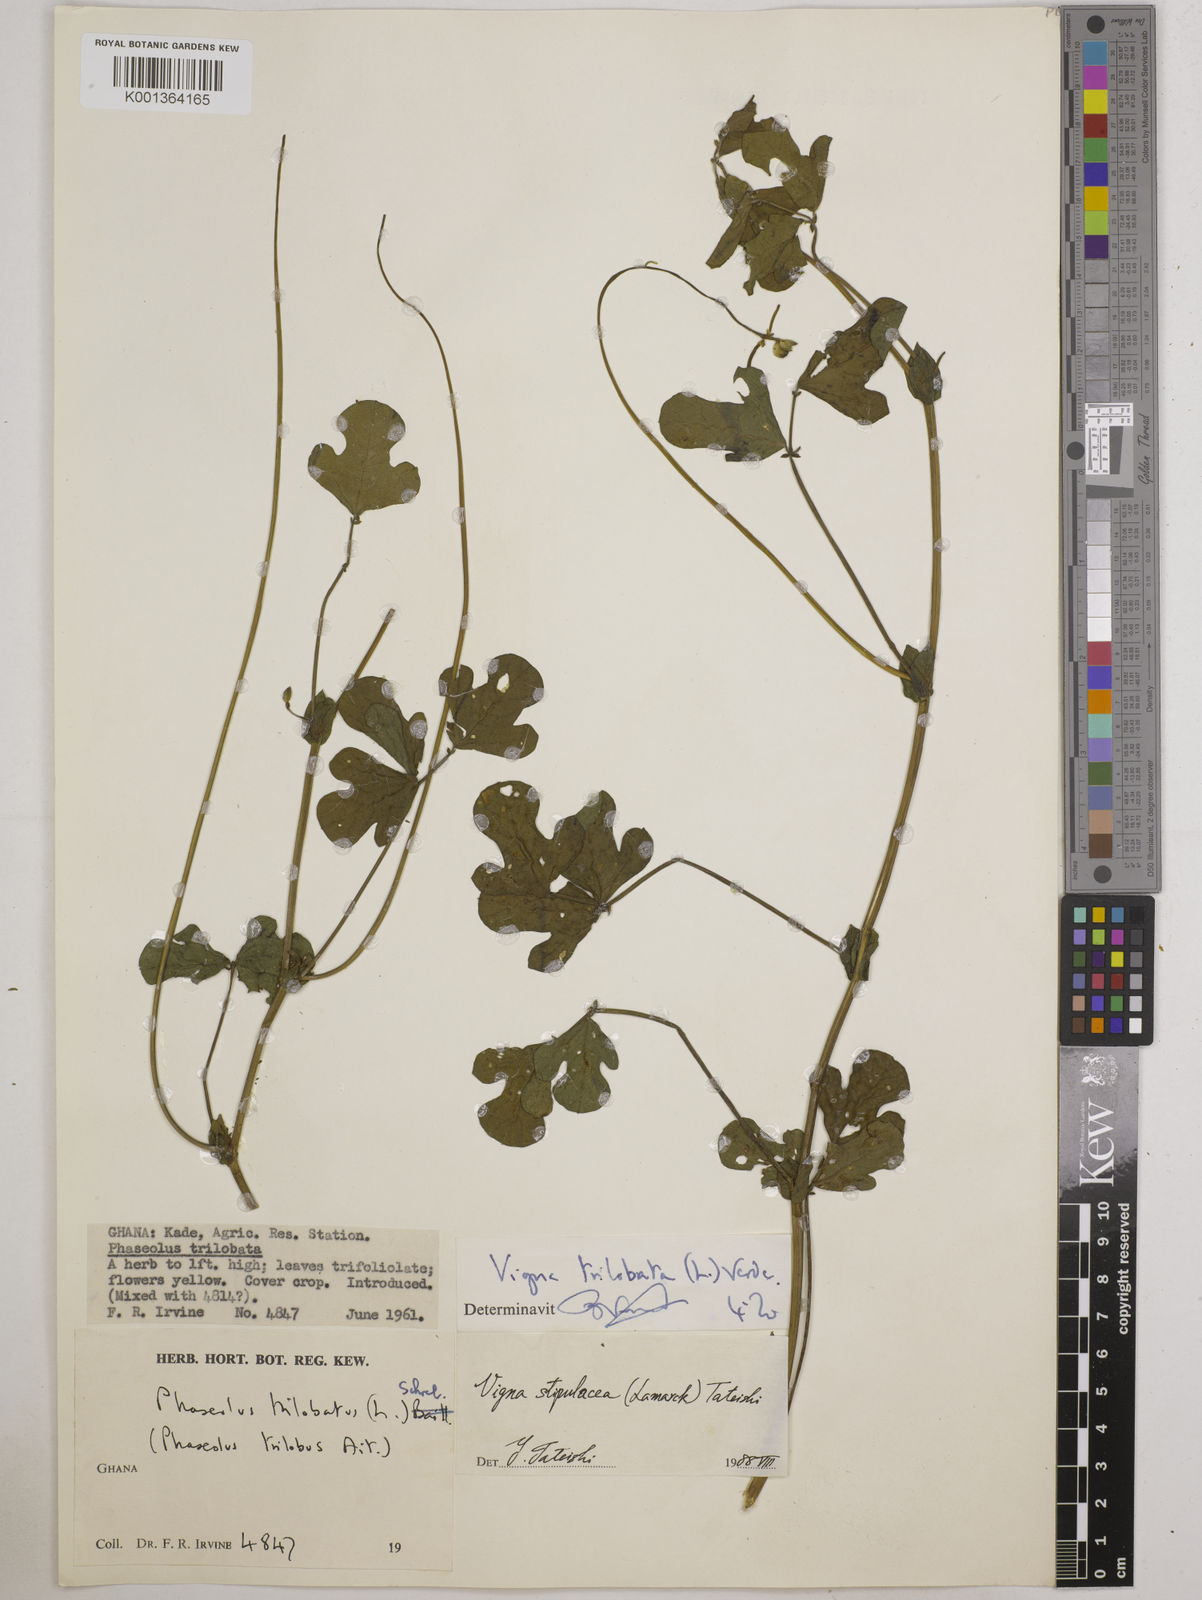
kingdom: Plantae
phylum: Tracheophyta
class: Magnoliopsida
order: Fabales
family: Fabaceae
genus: Vigna
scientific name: Vigna trilobata
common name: Jungli-bean
